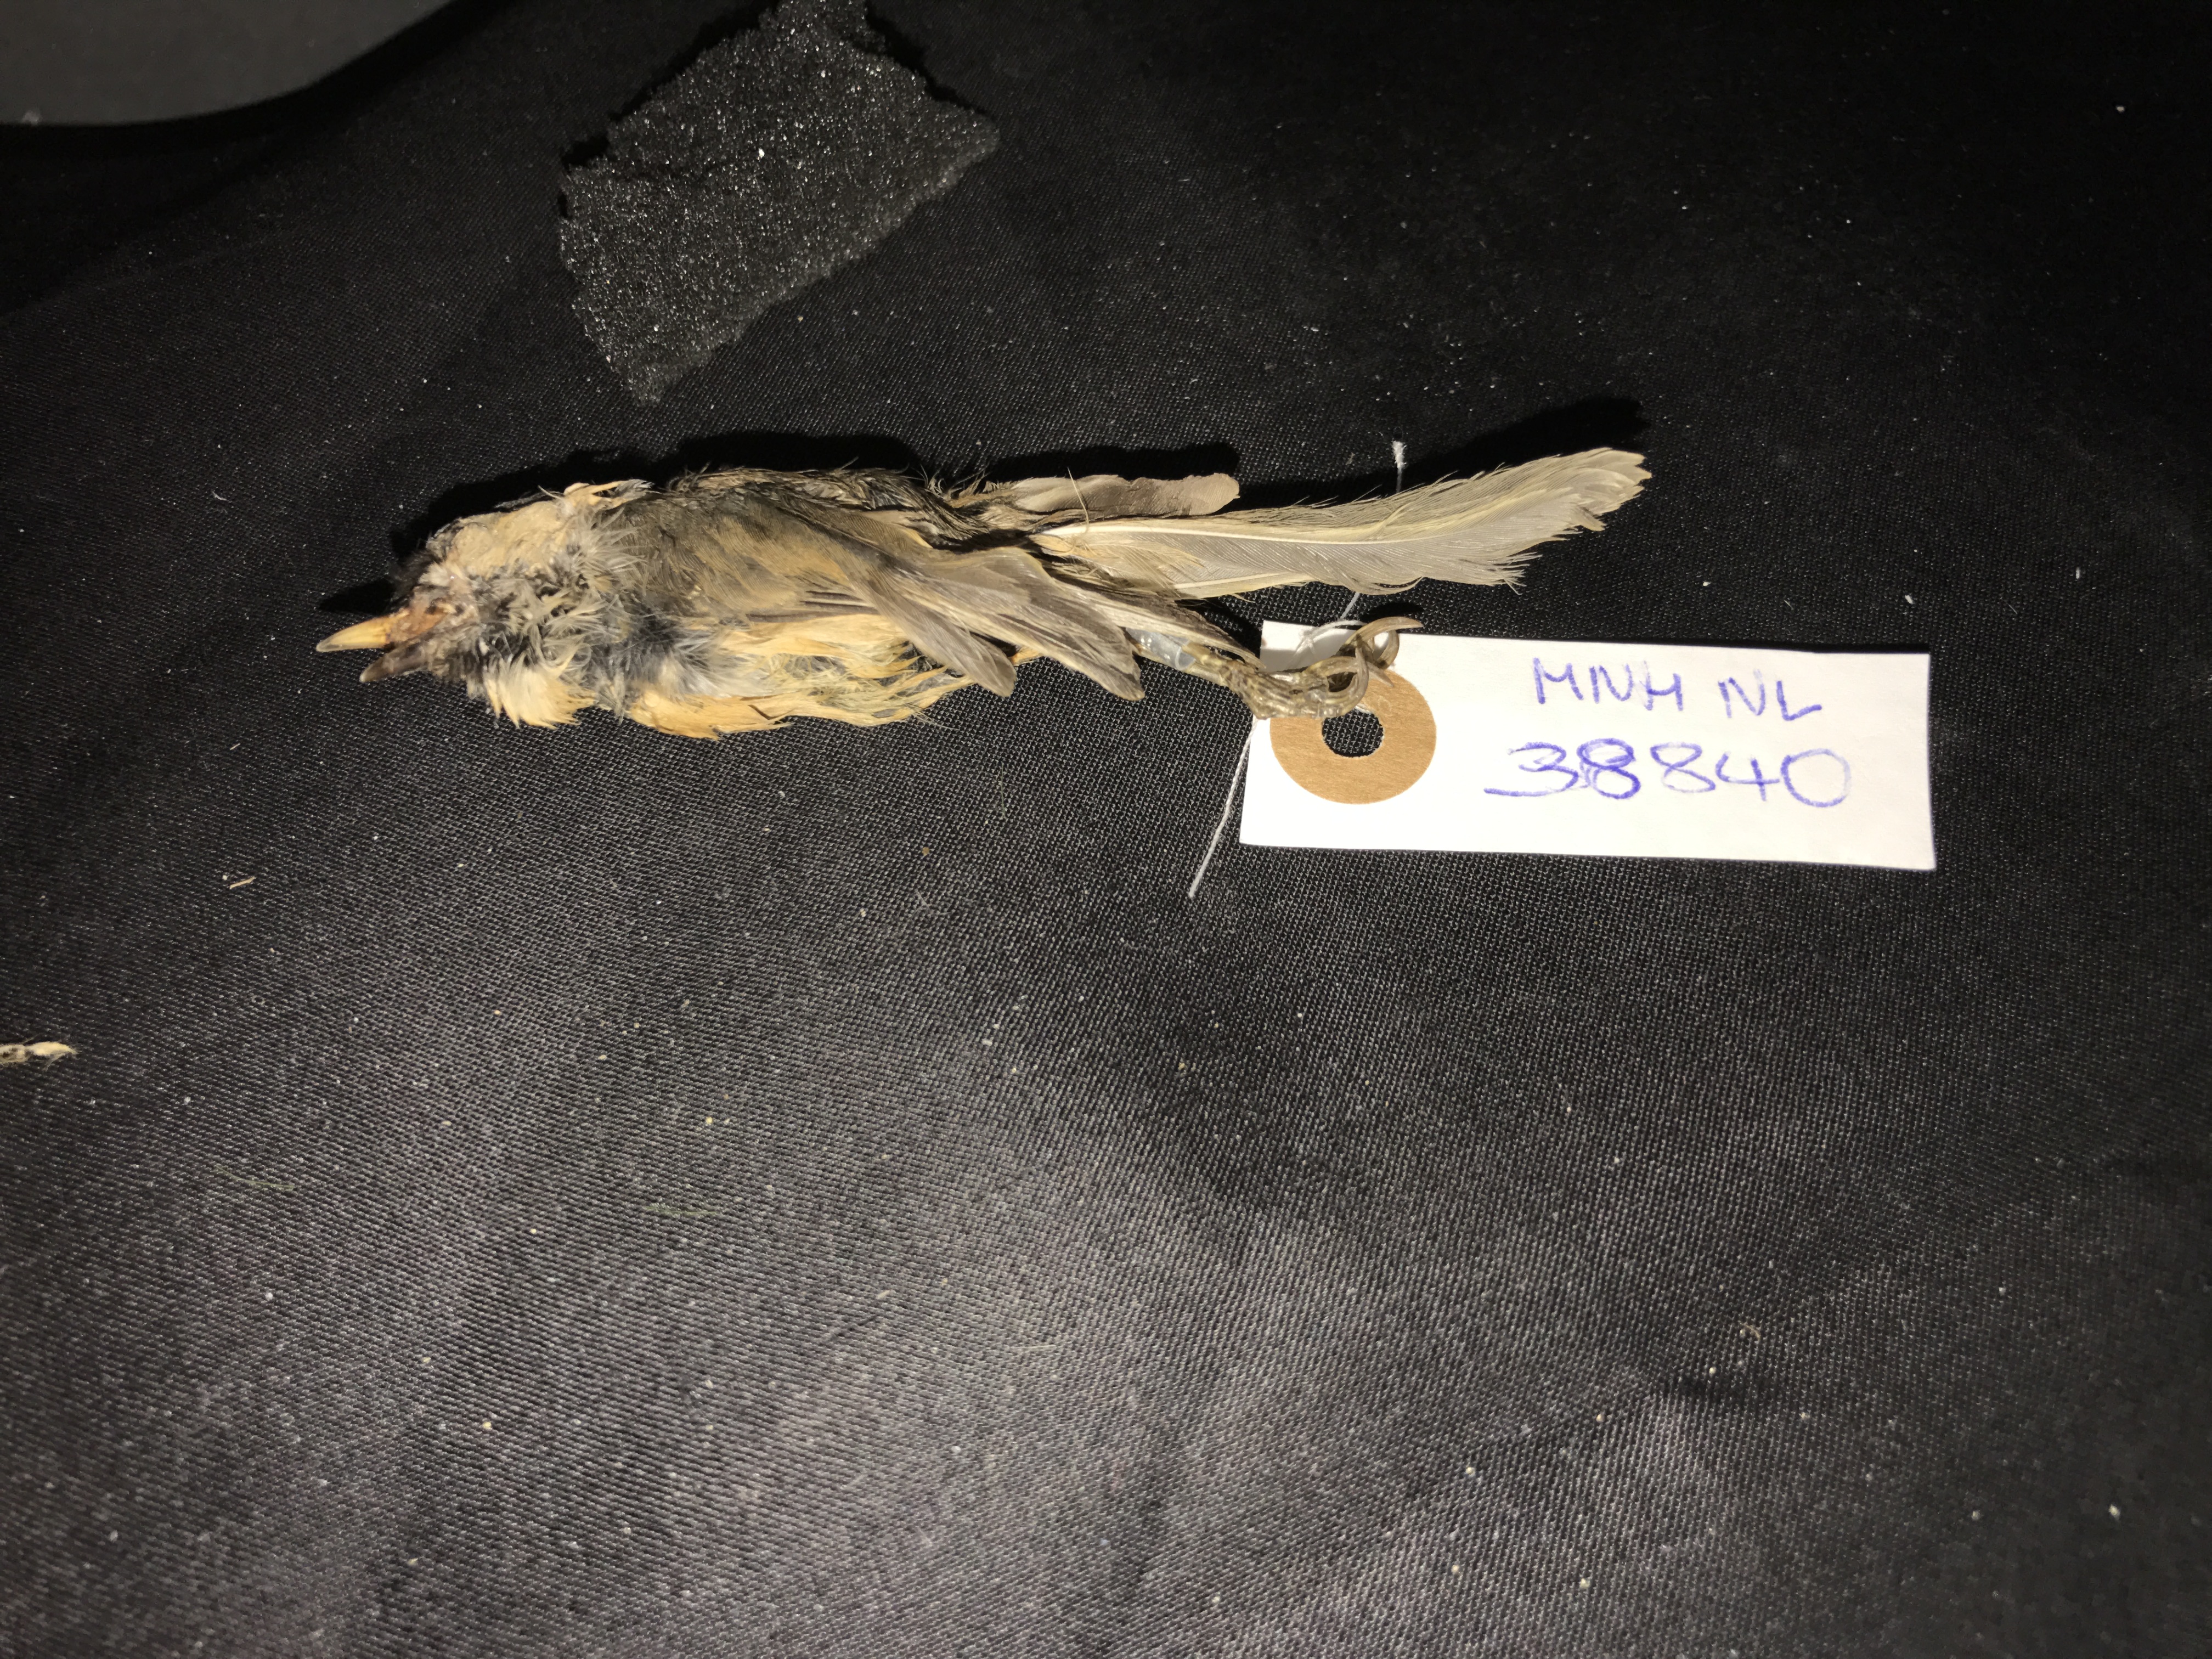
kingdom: Animalia
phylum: Chordata
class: Aves
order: Passeriformes
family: Paridae
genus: Parus
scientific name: Parus montanus
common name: Willow tit
